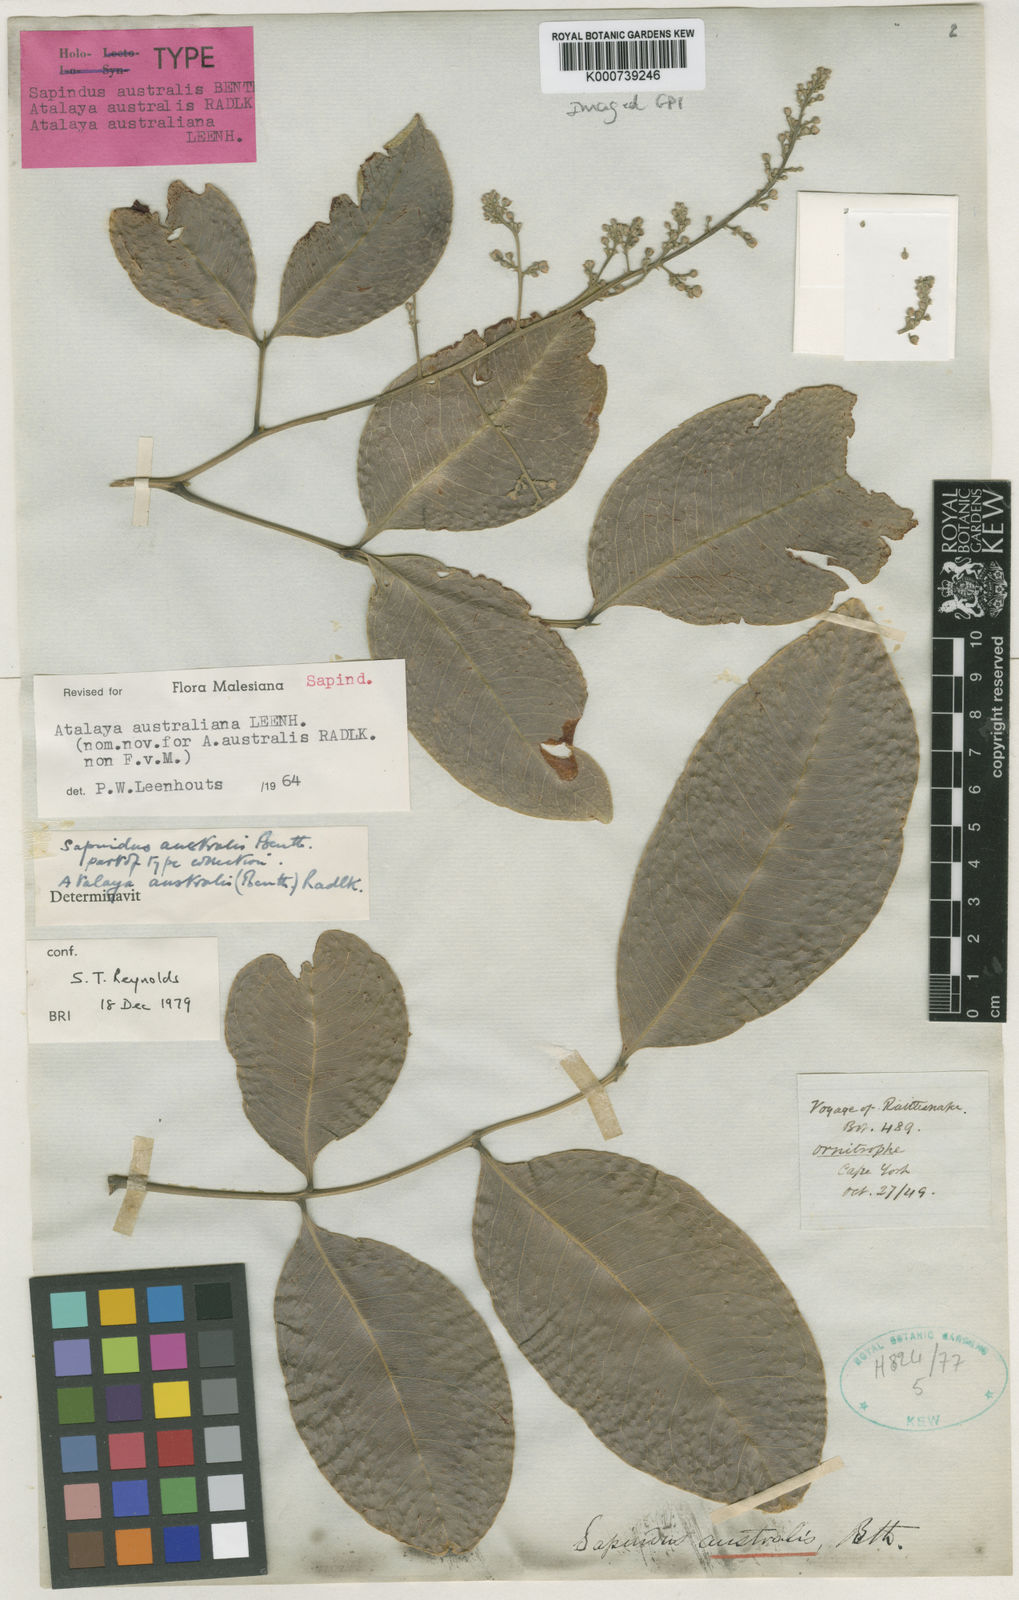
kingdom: Plantae
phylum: Tracheophyta
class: Magnoliopsida
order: Sapindales
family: Sapindaceae
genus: Atalaya
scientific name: Atalaya australiana
